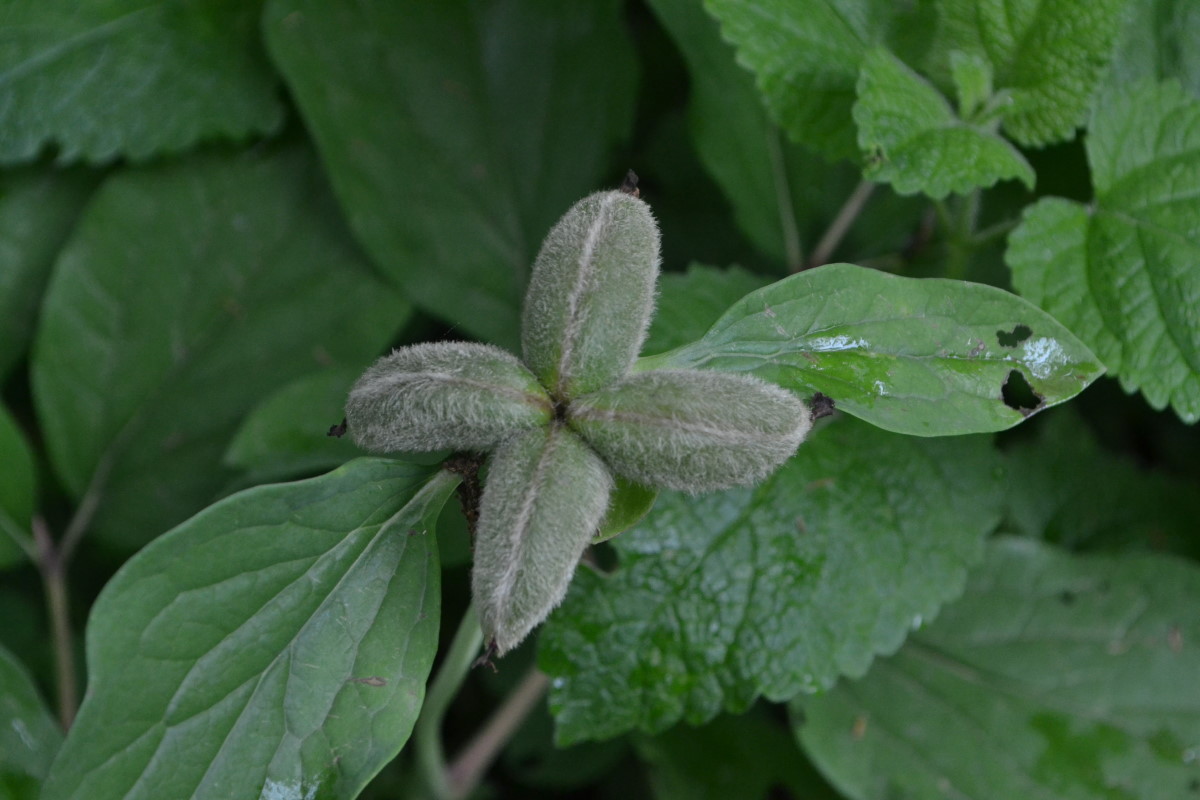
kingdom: Plantae
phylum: Tracheophyta
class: Magnoliopsida
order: Saxifragales
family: Paeoniaceae
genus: Paeonia
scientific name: Paeonia caucasica
